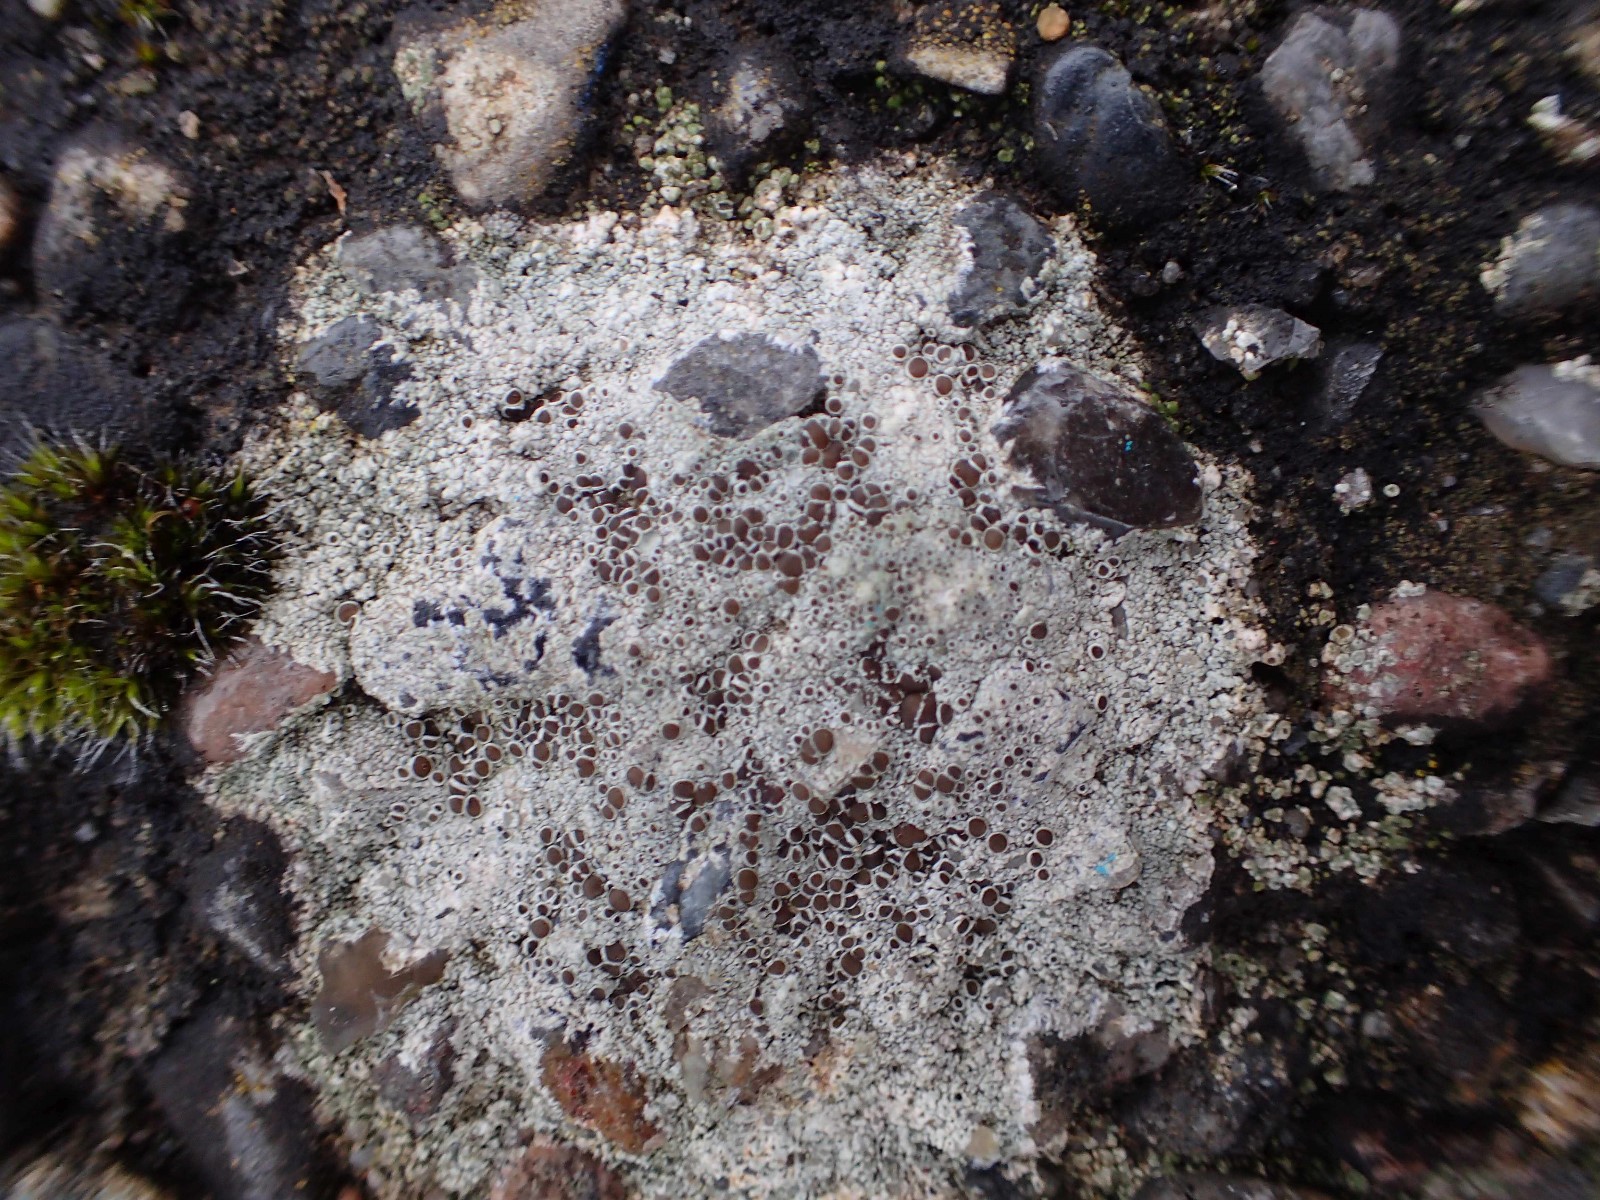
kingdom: Fungi
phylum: Ascomycota
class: Lecanoromycetes
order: Lecanorales
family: Lecanoraceae
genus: Lecanora
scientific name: Lecanora campestris
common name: mur-kantskivelav
